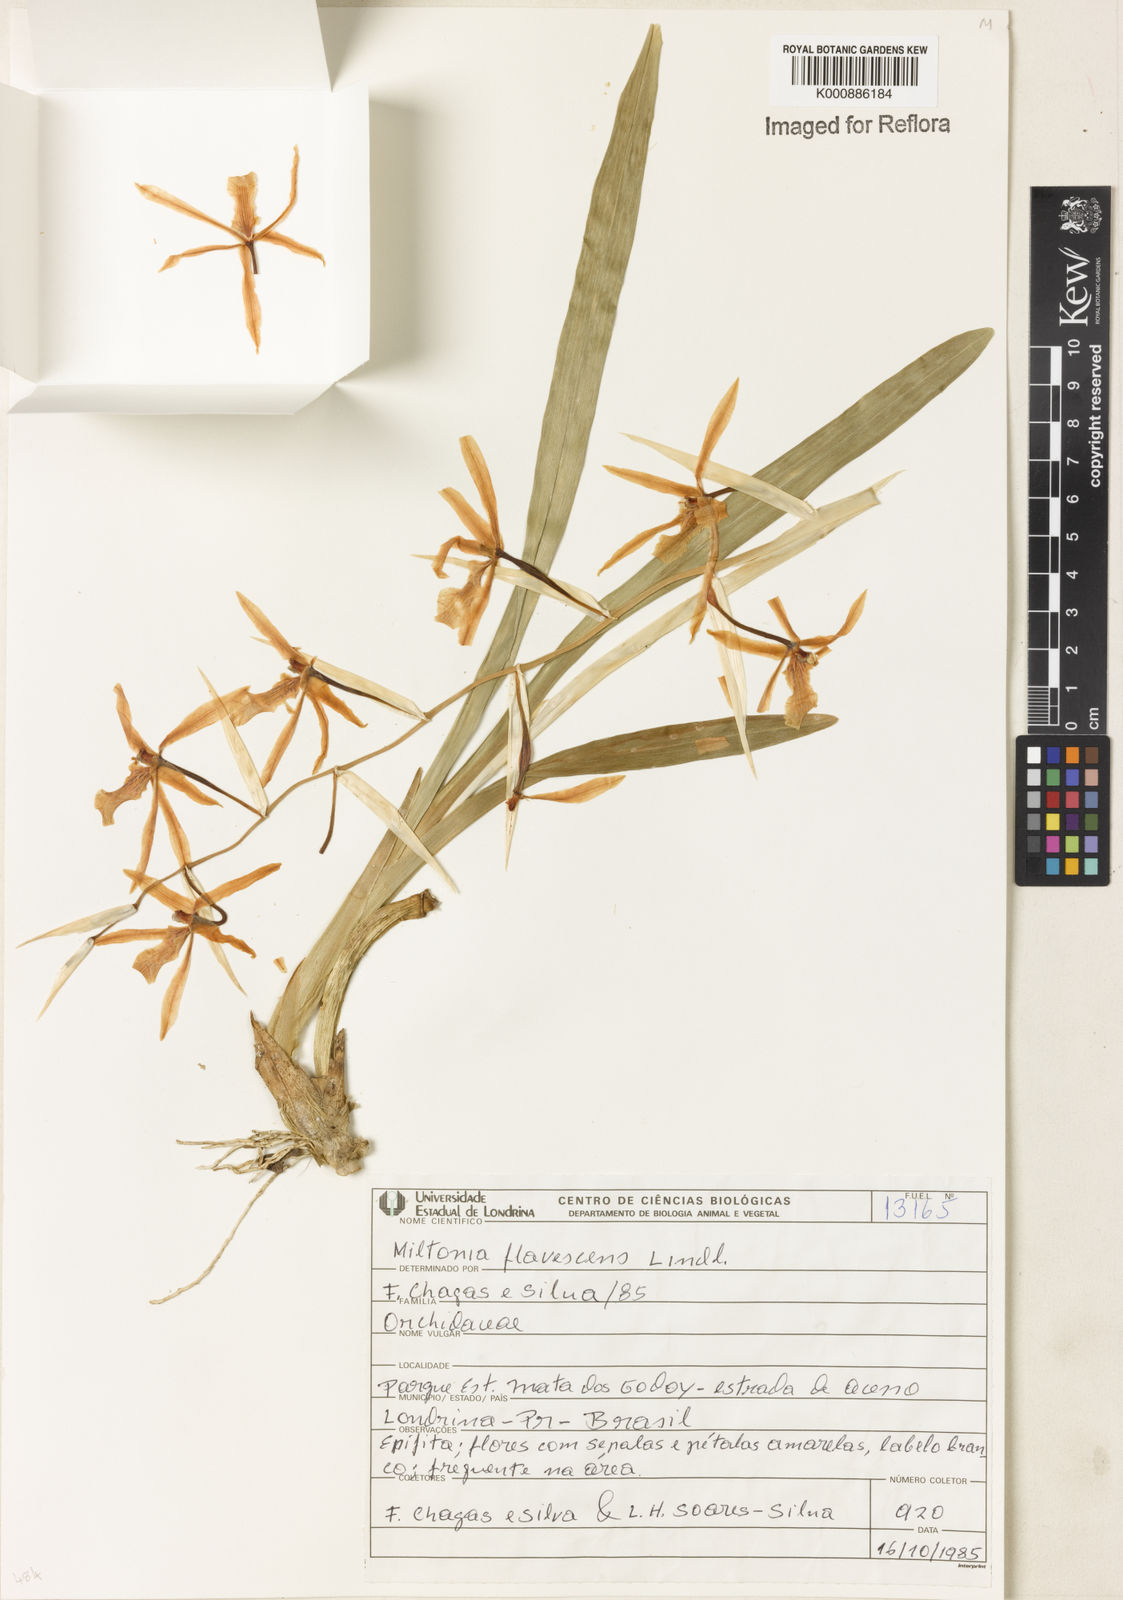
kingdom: Plantae
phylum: Tracheophyta
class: Liliopsida
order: Asparagales
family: Orchidaceae
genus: Miltonia
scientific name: Miltonia flavescens
